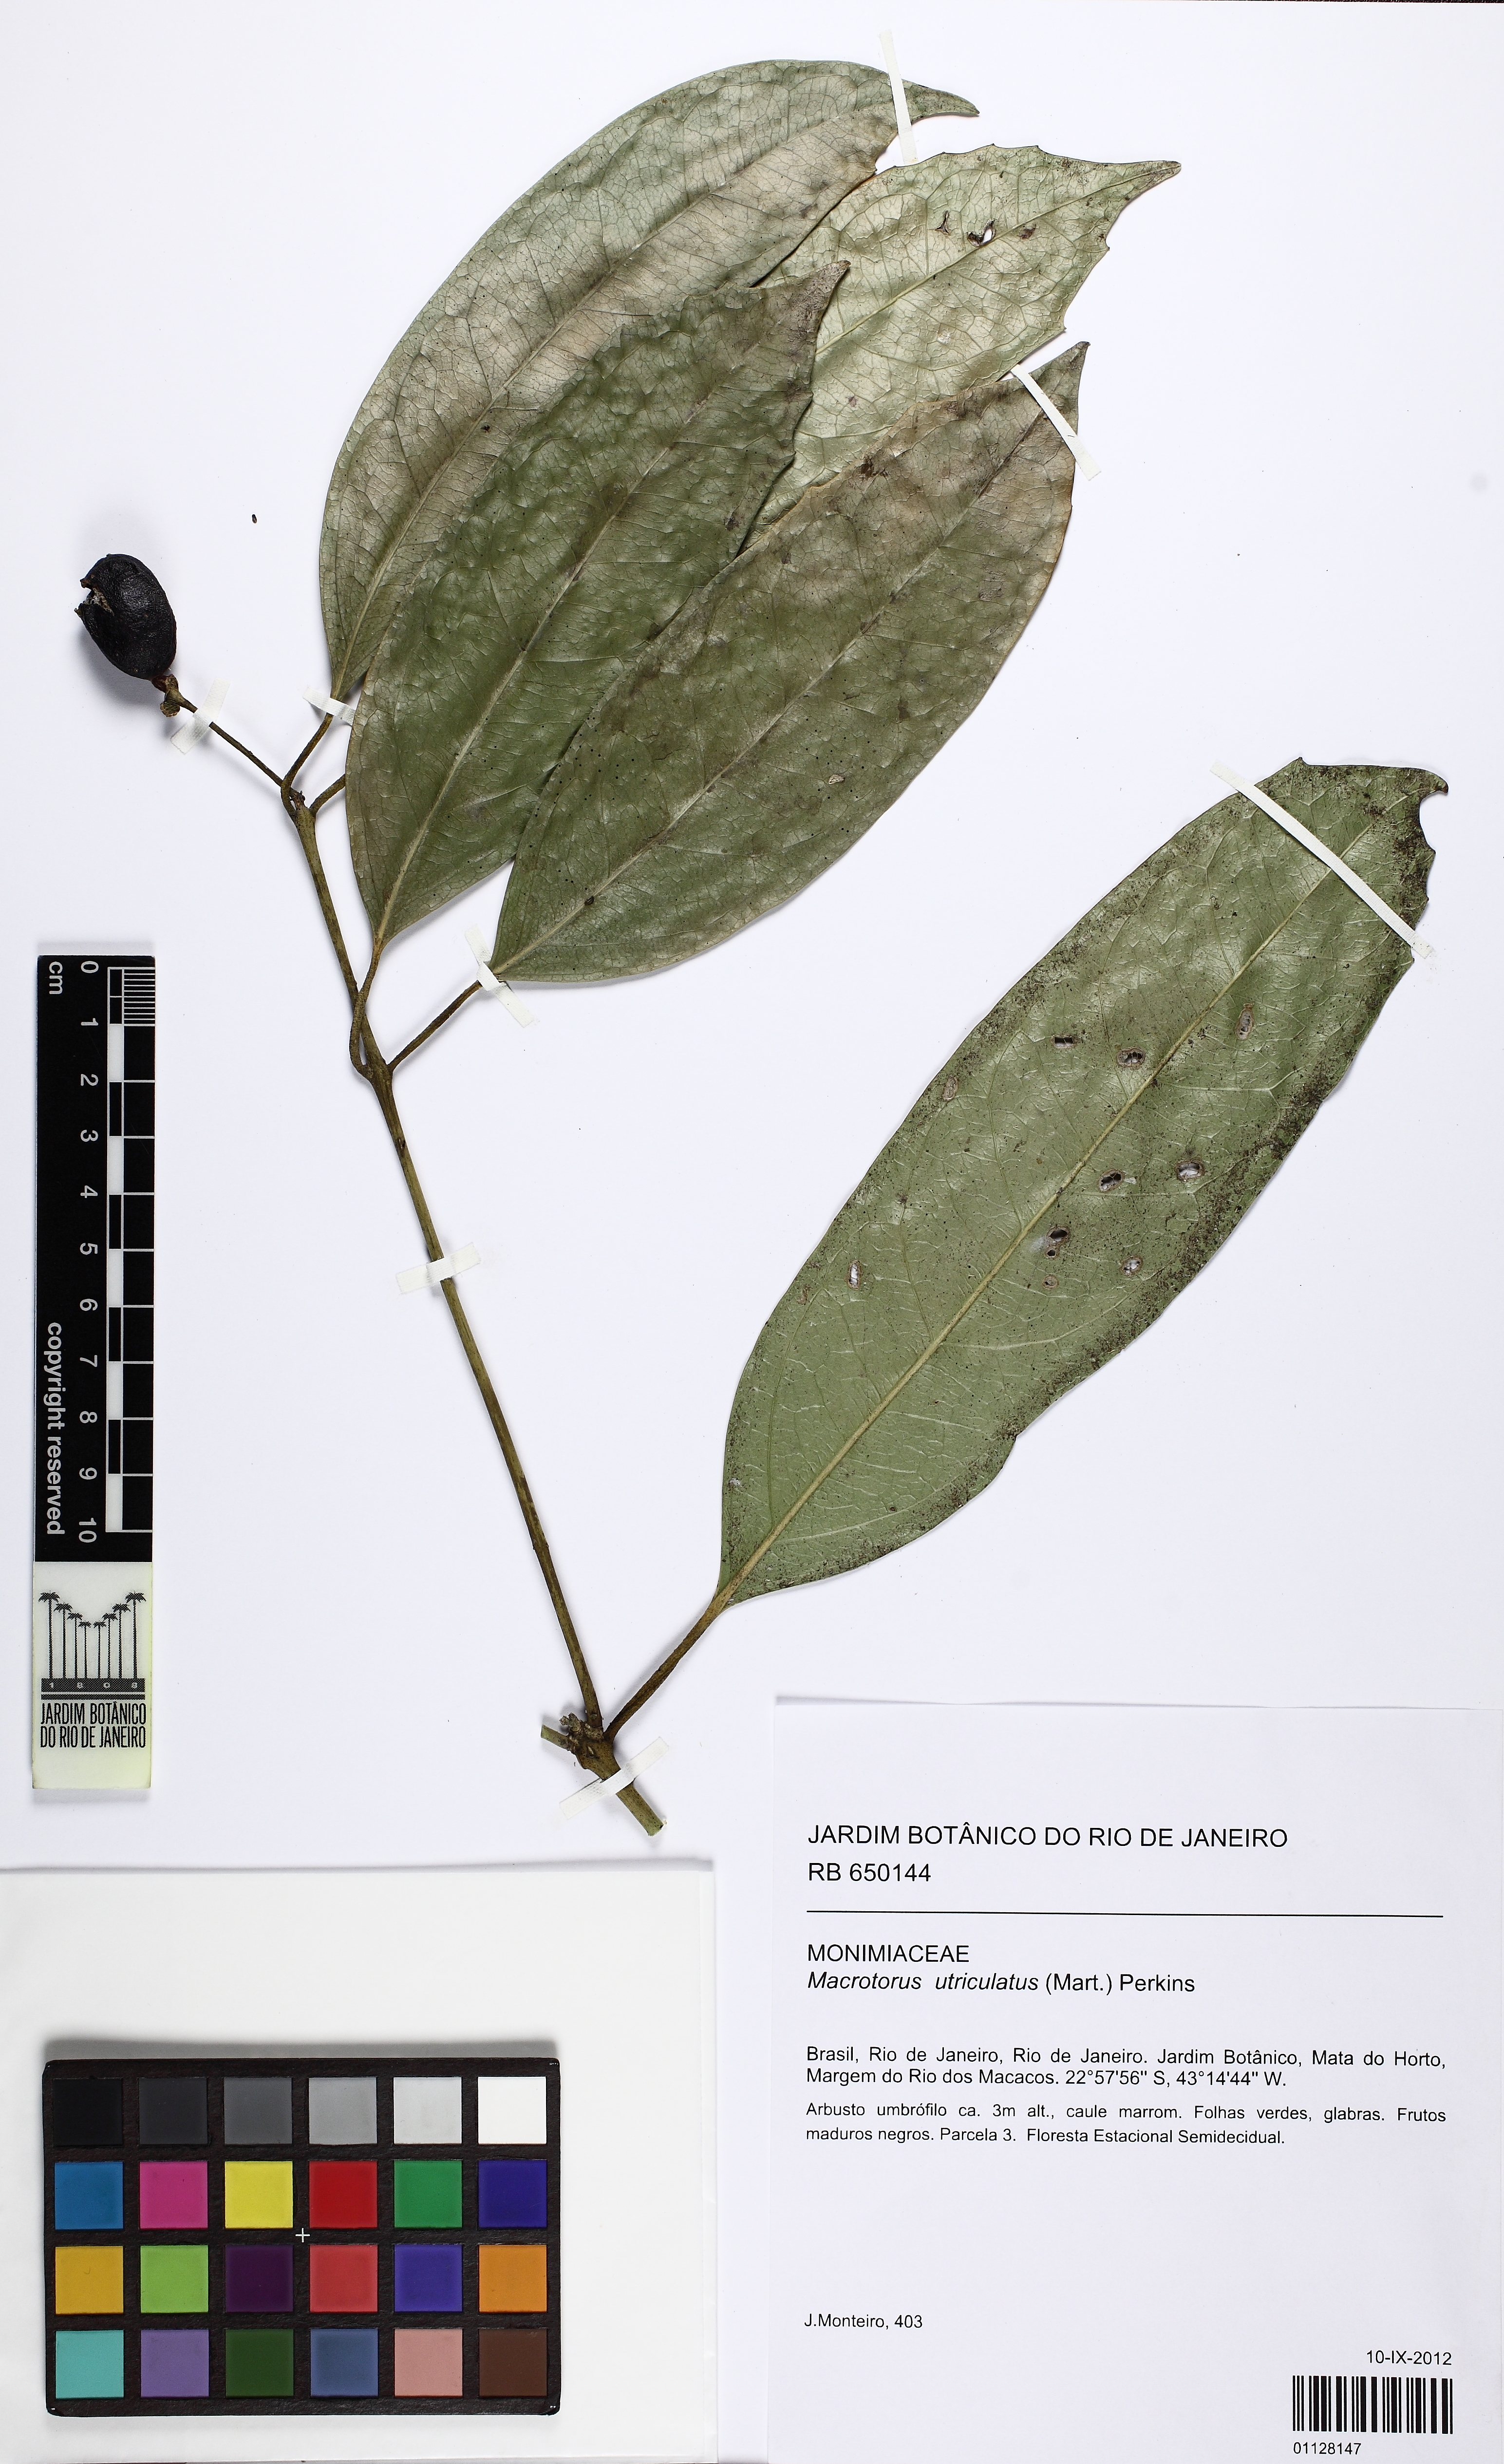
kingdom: Plantae
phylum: Tracheophyta
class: Magnoliopsida
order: Laurales
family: Monimiaceae
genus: Macrotorus
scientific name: Macrotorus utriculatus
